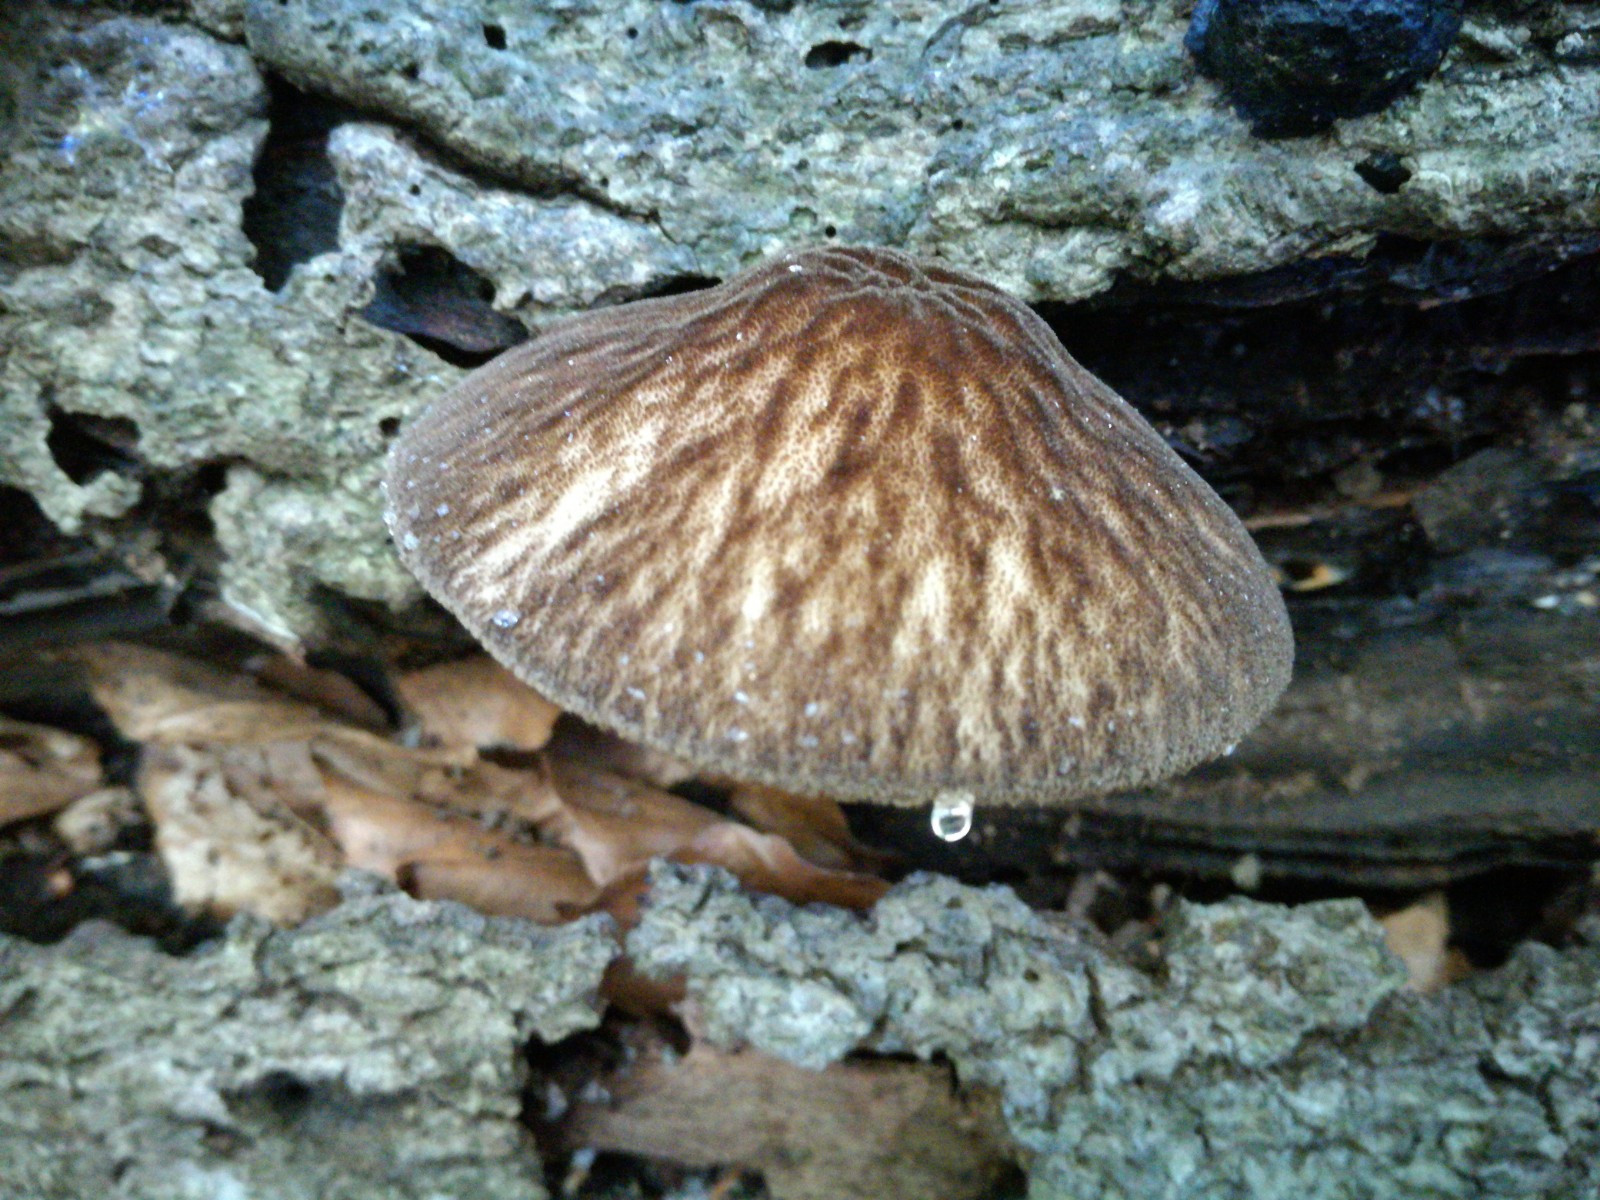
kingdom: Fungi
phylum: Basidiomycota
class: Agaricomycetes
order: Agaricales
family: Pluteaceae
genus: Pluteus
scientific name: Pluteus umbrosus
